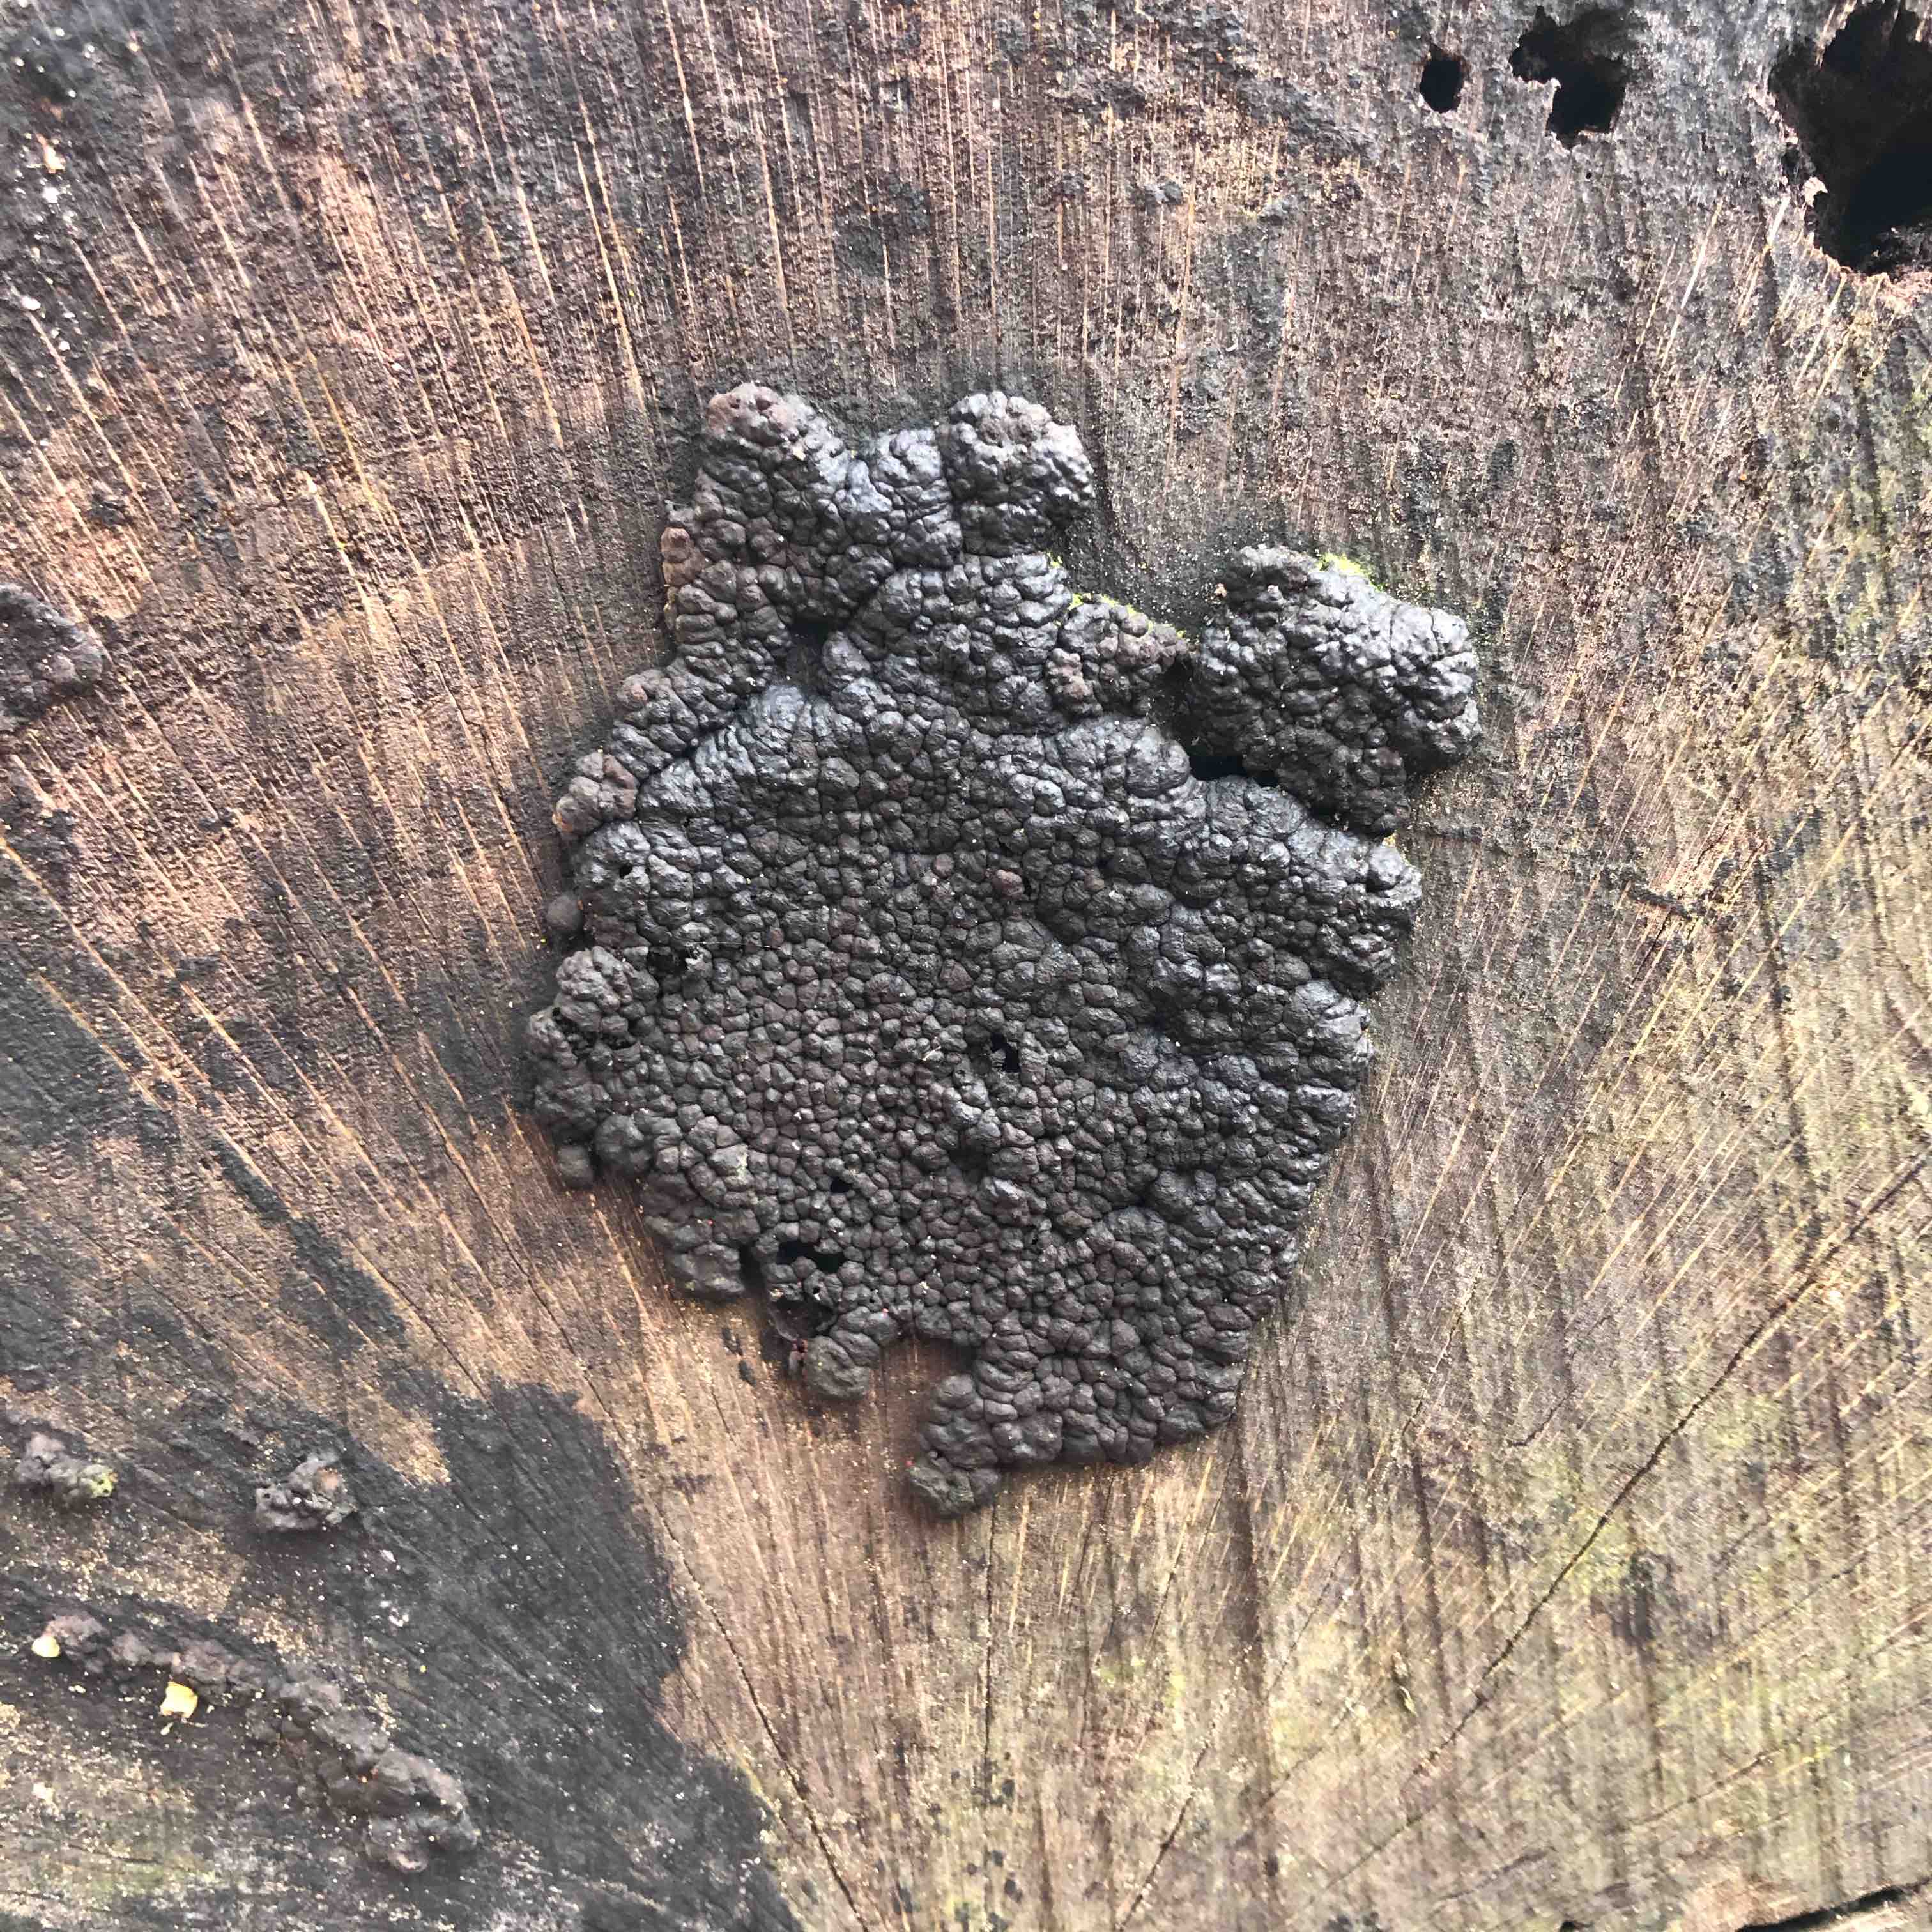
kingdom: Fungi
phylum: Ascomycota
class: Sordariomycetes
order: Xylariales
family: Hypoxylaceae
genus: Jackrogersella
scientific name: Jackrogersella
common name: kulbær
